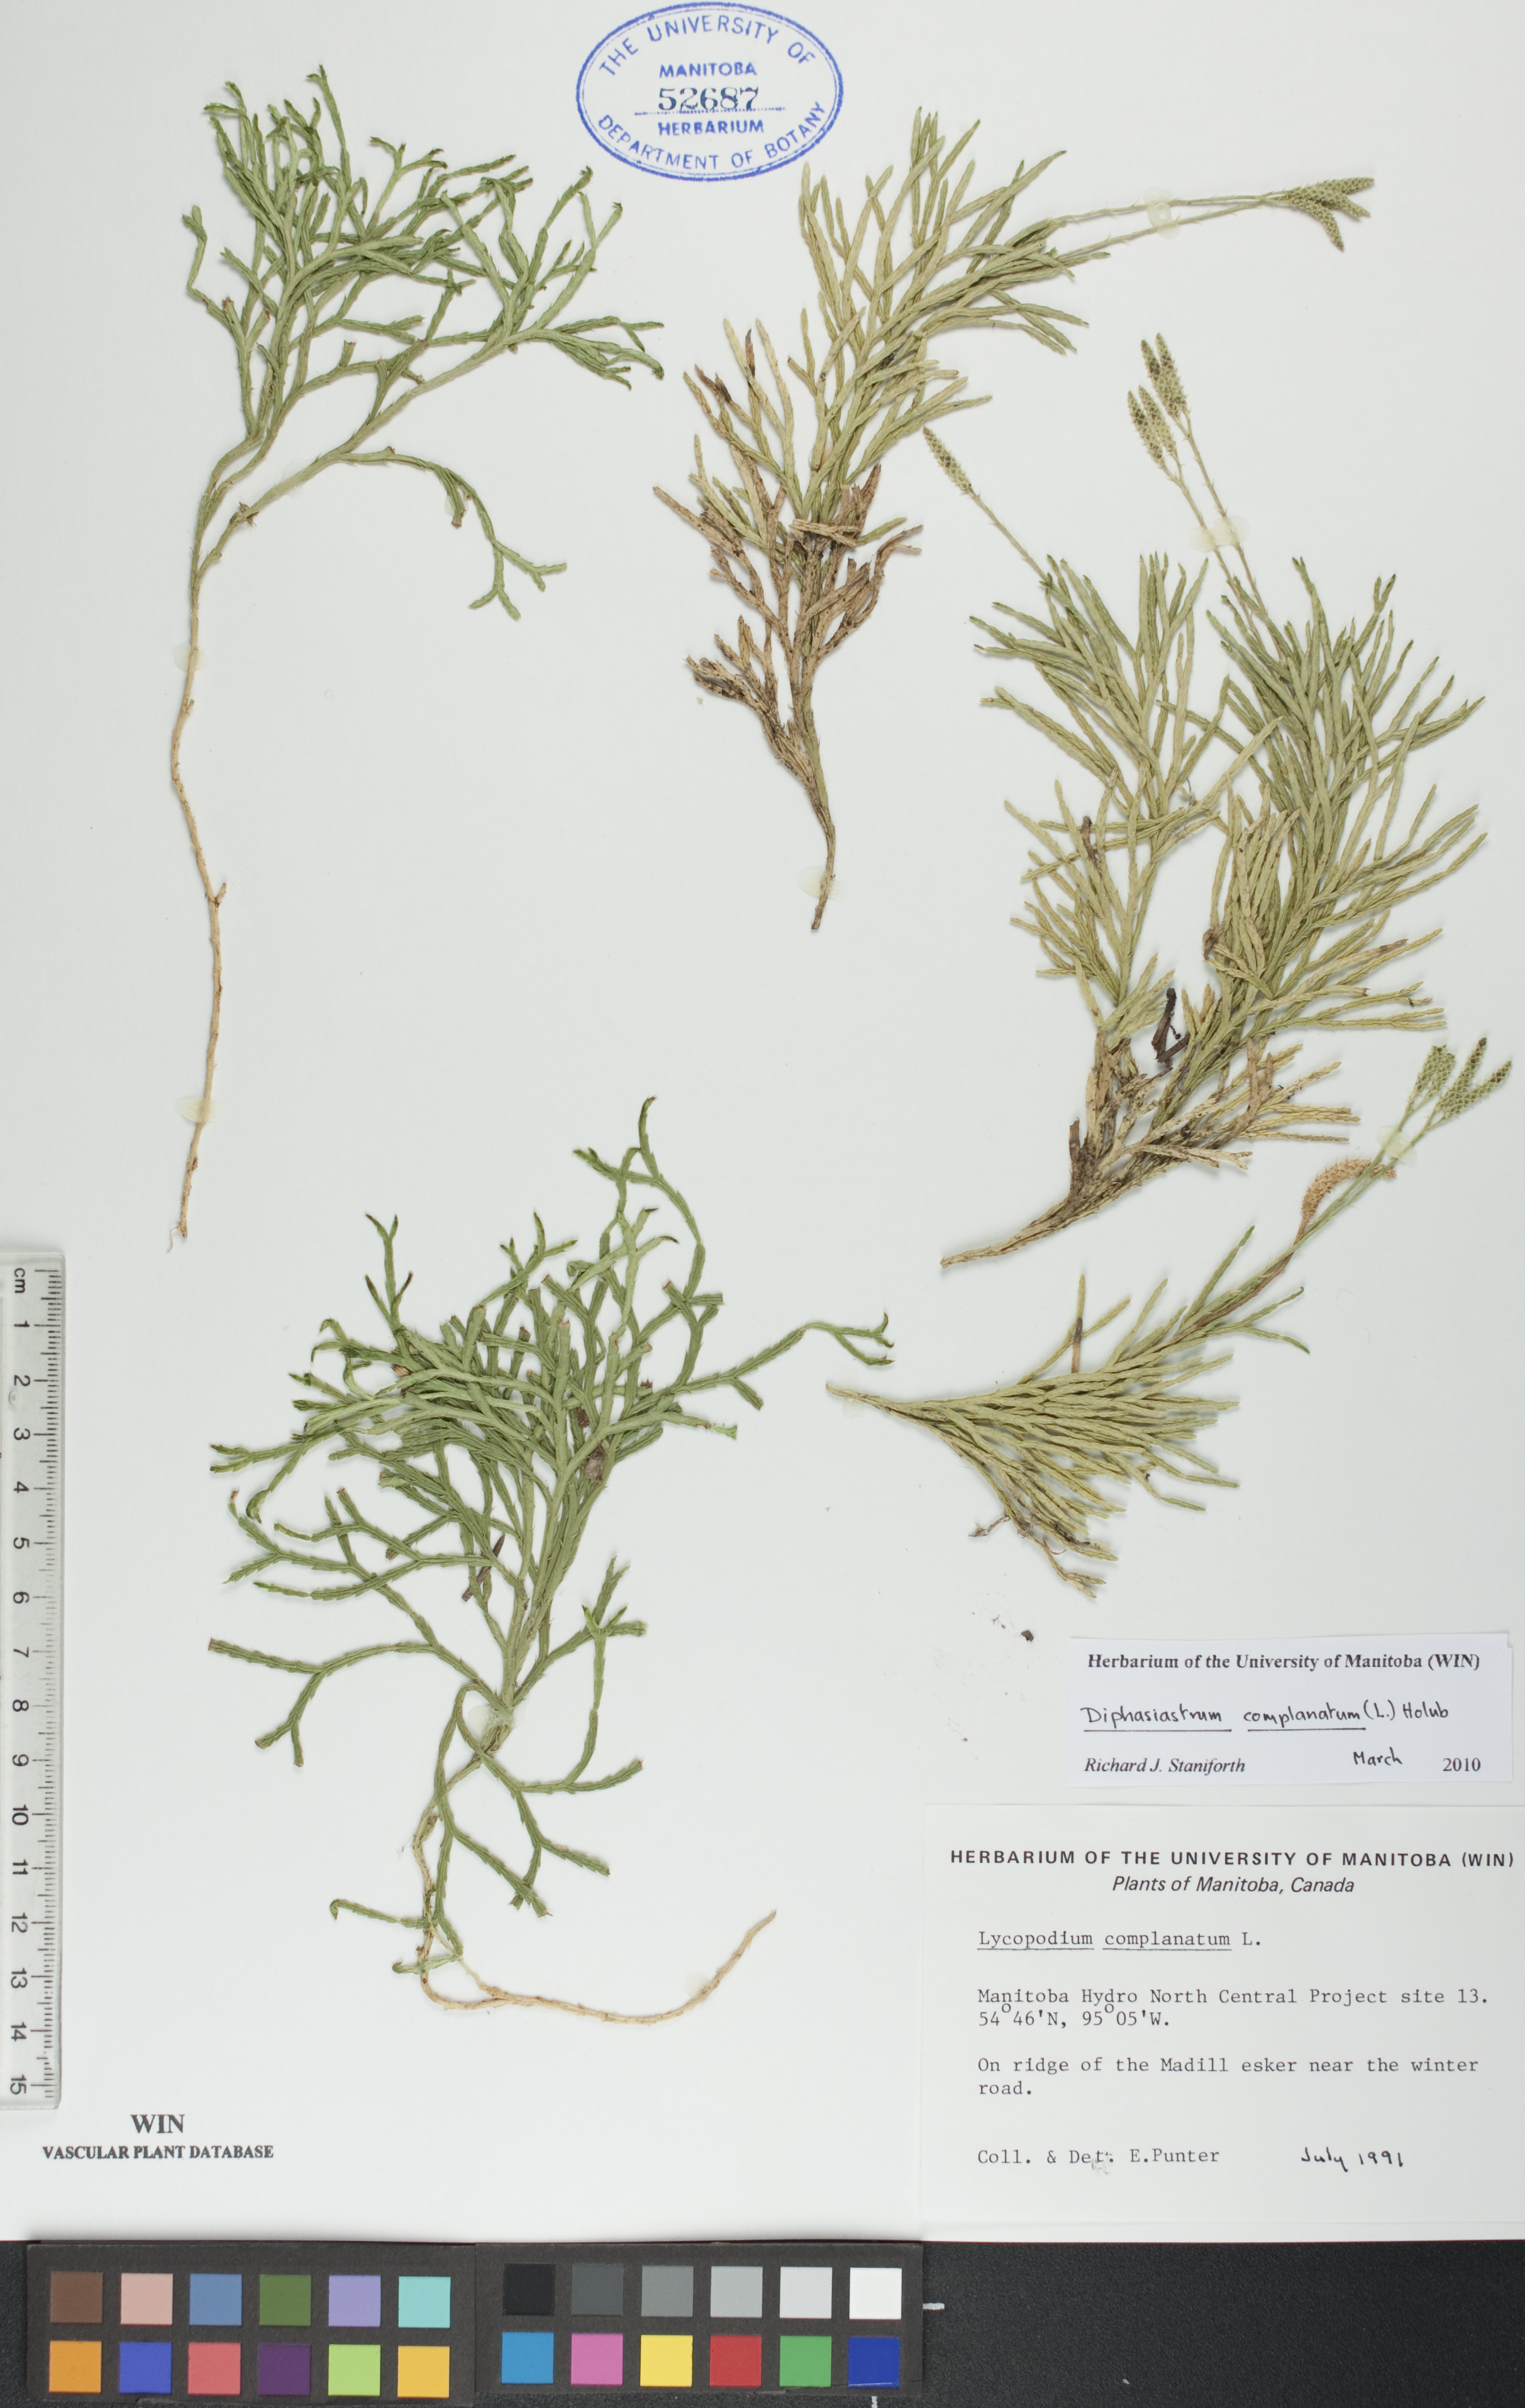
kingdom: Plantae
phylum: Tracheophyta
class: Lycopodiopsida
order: Lycopodiales
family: Lycopodiaceae
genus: Diphasiastrum
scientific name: Diphasiastrum complanatum
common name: Northern running-pine
